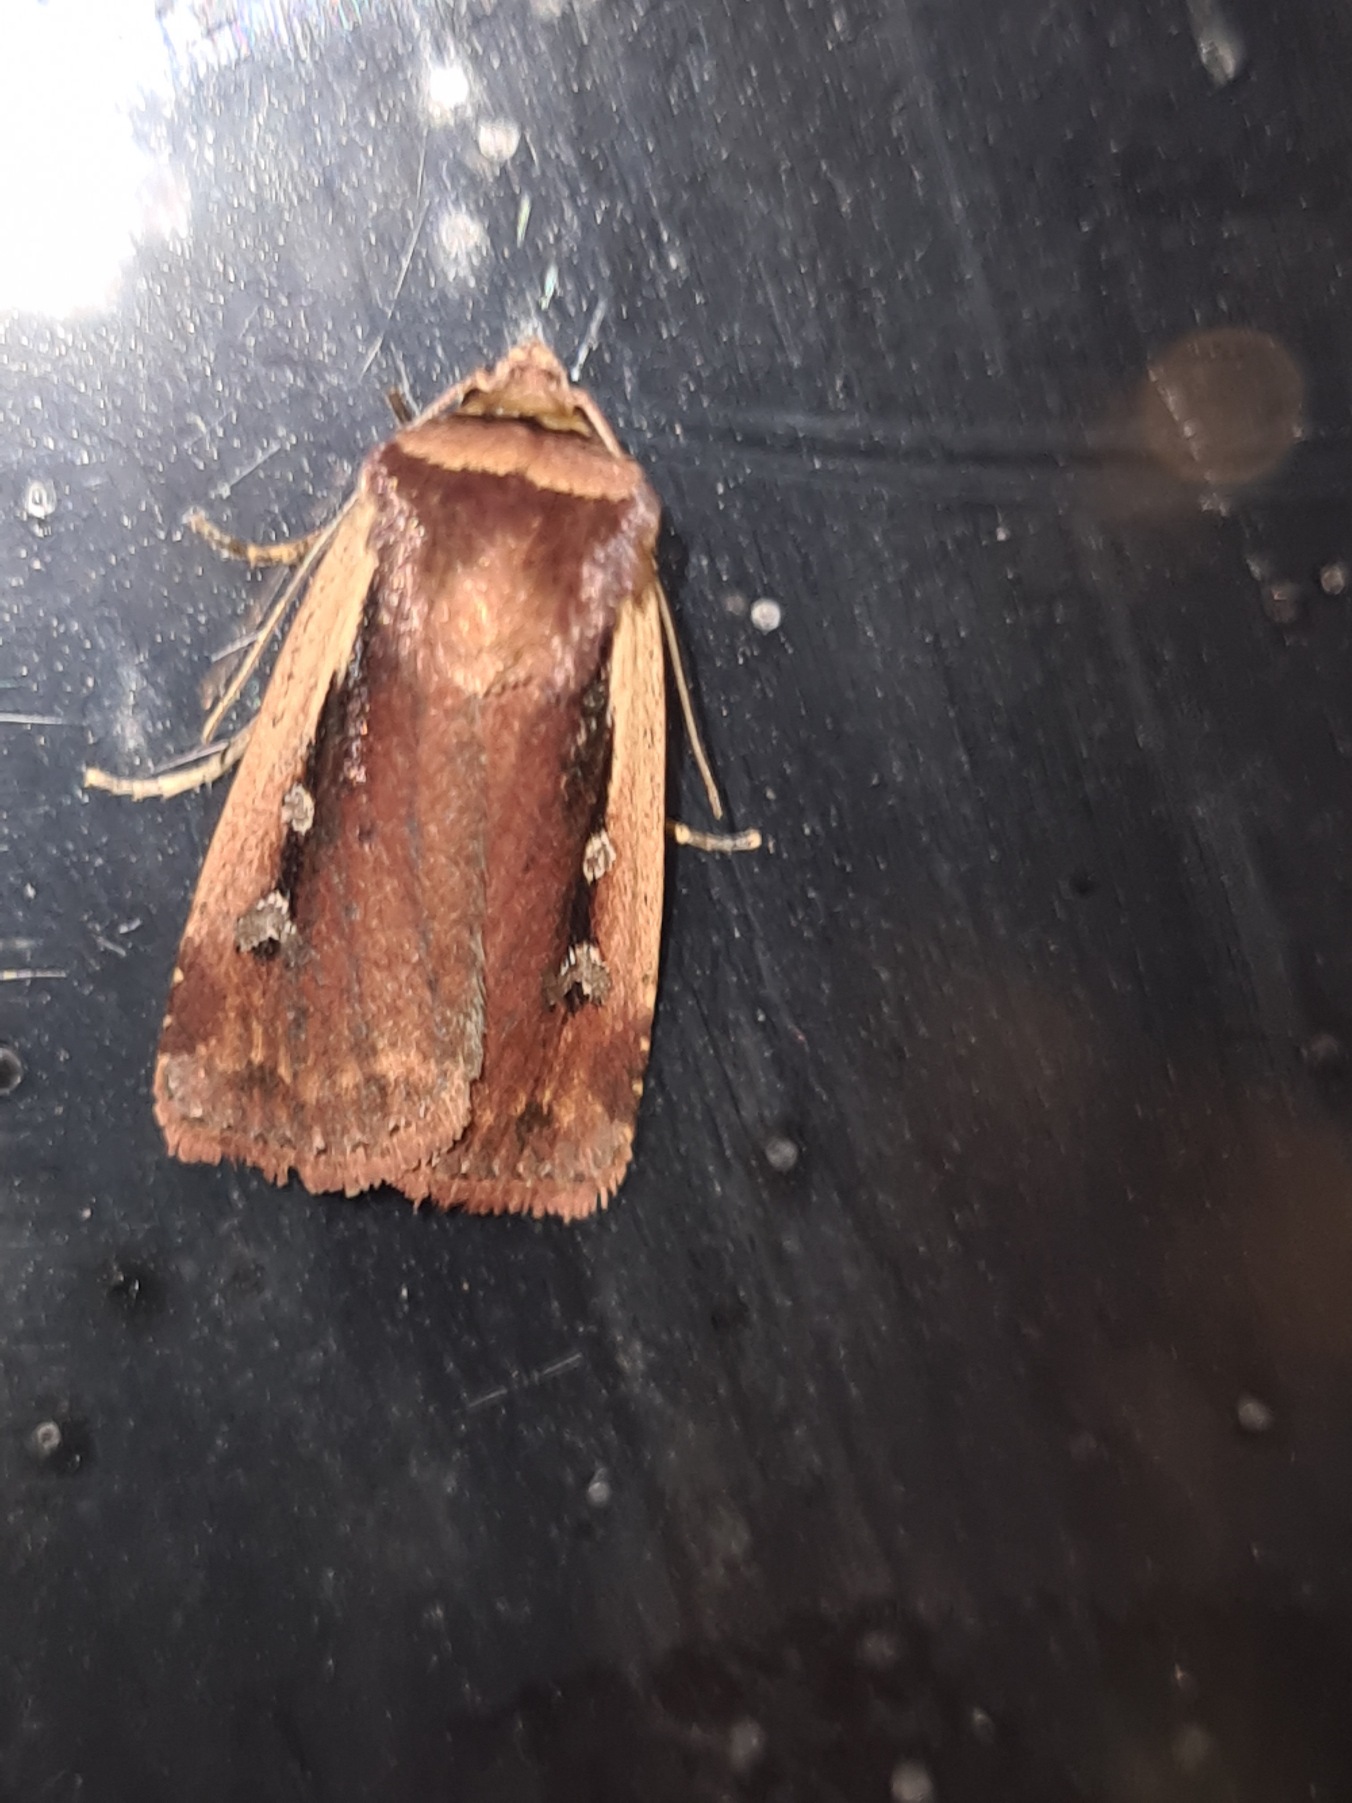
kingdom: Animalia
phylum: Arthropoda
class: Insecta
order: Lepidoptera
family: Noctuidae
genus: Ochropleura
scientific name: Ochropleura plecta
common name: Hvidrandet jordugle
